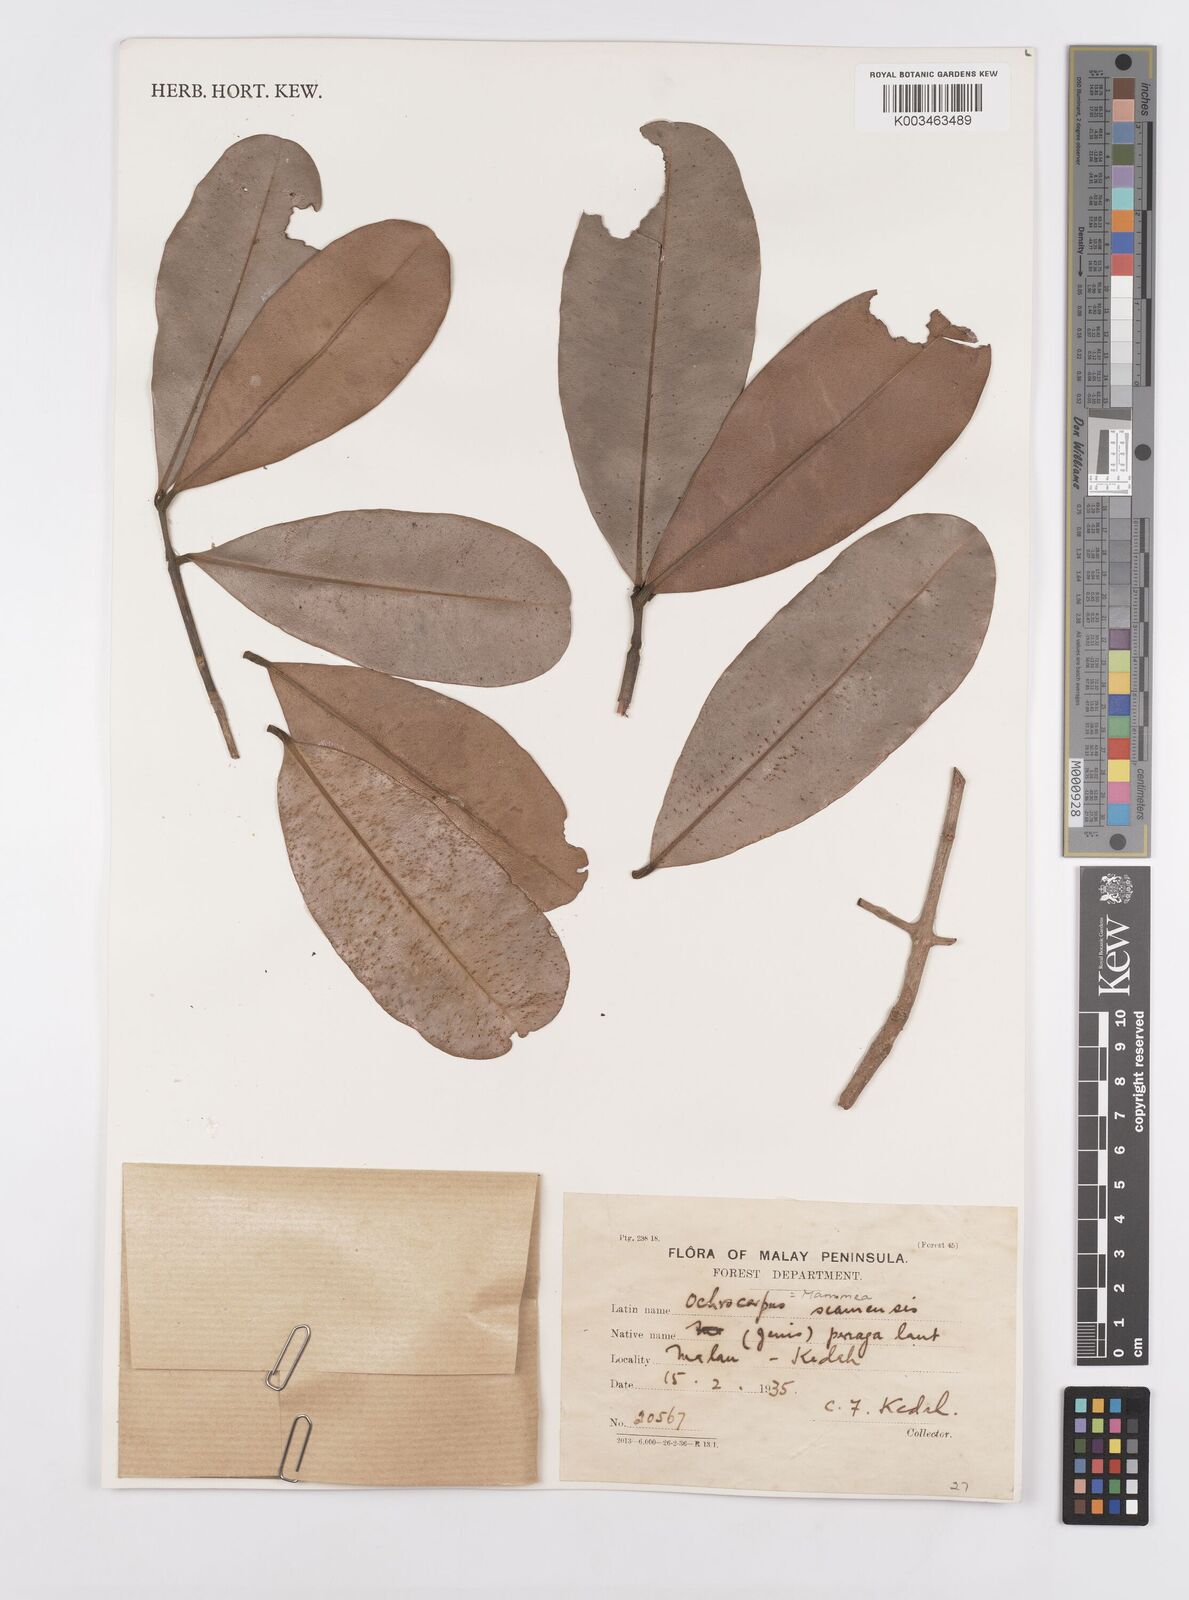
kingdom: Plantae
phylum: Tracheophyta
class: Magnoliopsida
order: Malpighiales
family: Calophyllaceae
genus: Mammea
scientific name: Mammea siamensis
